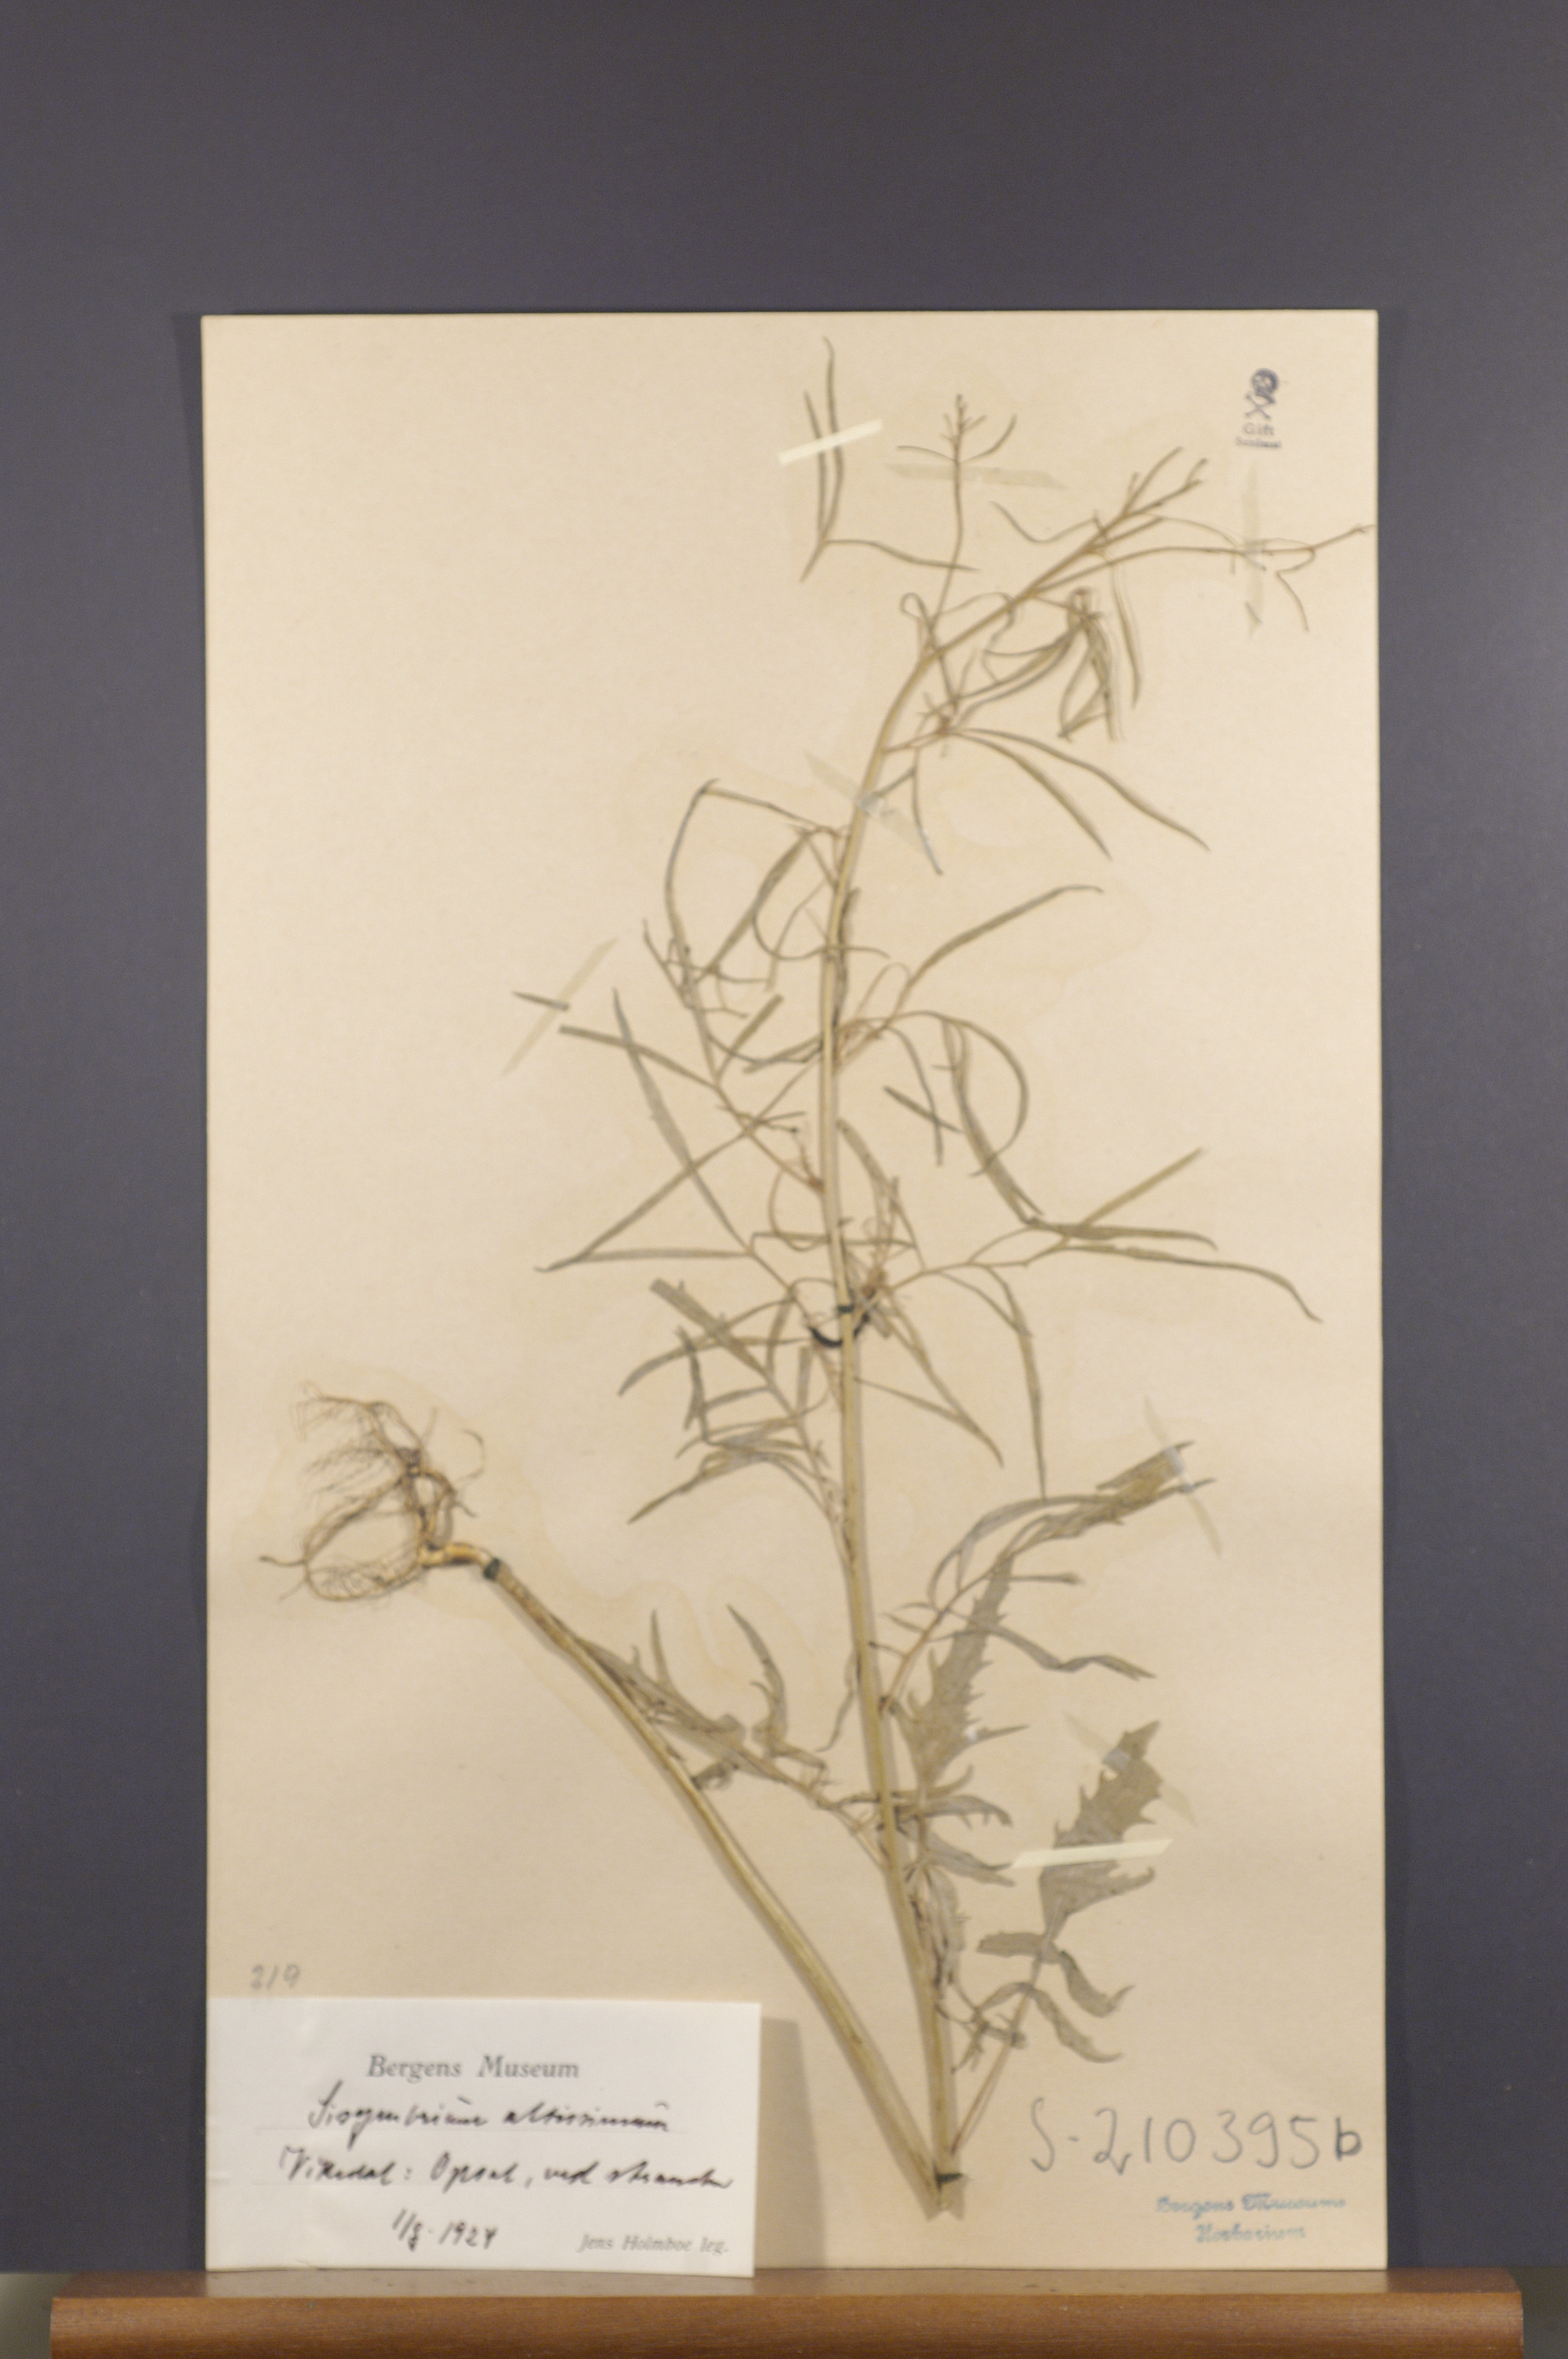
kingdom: Plantae
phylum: Tracheophyta
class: Magnoliopsida
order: Brassicales
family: Brassicaceae
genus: Sisymbrium
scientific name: Sisymbrium altissimum
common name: Tall rocket
